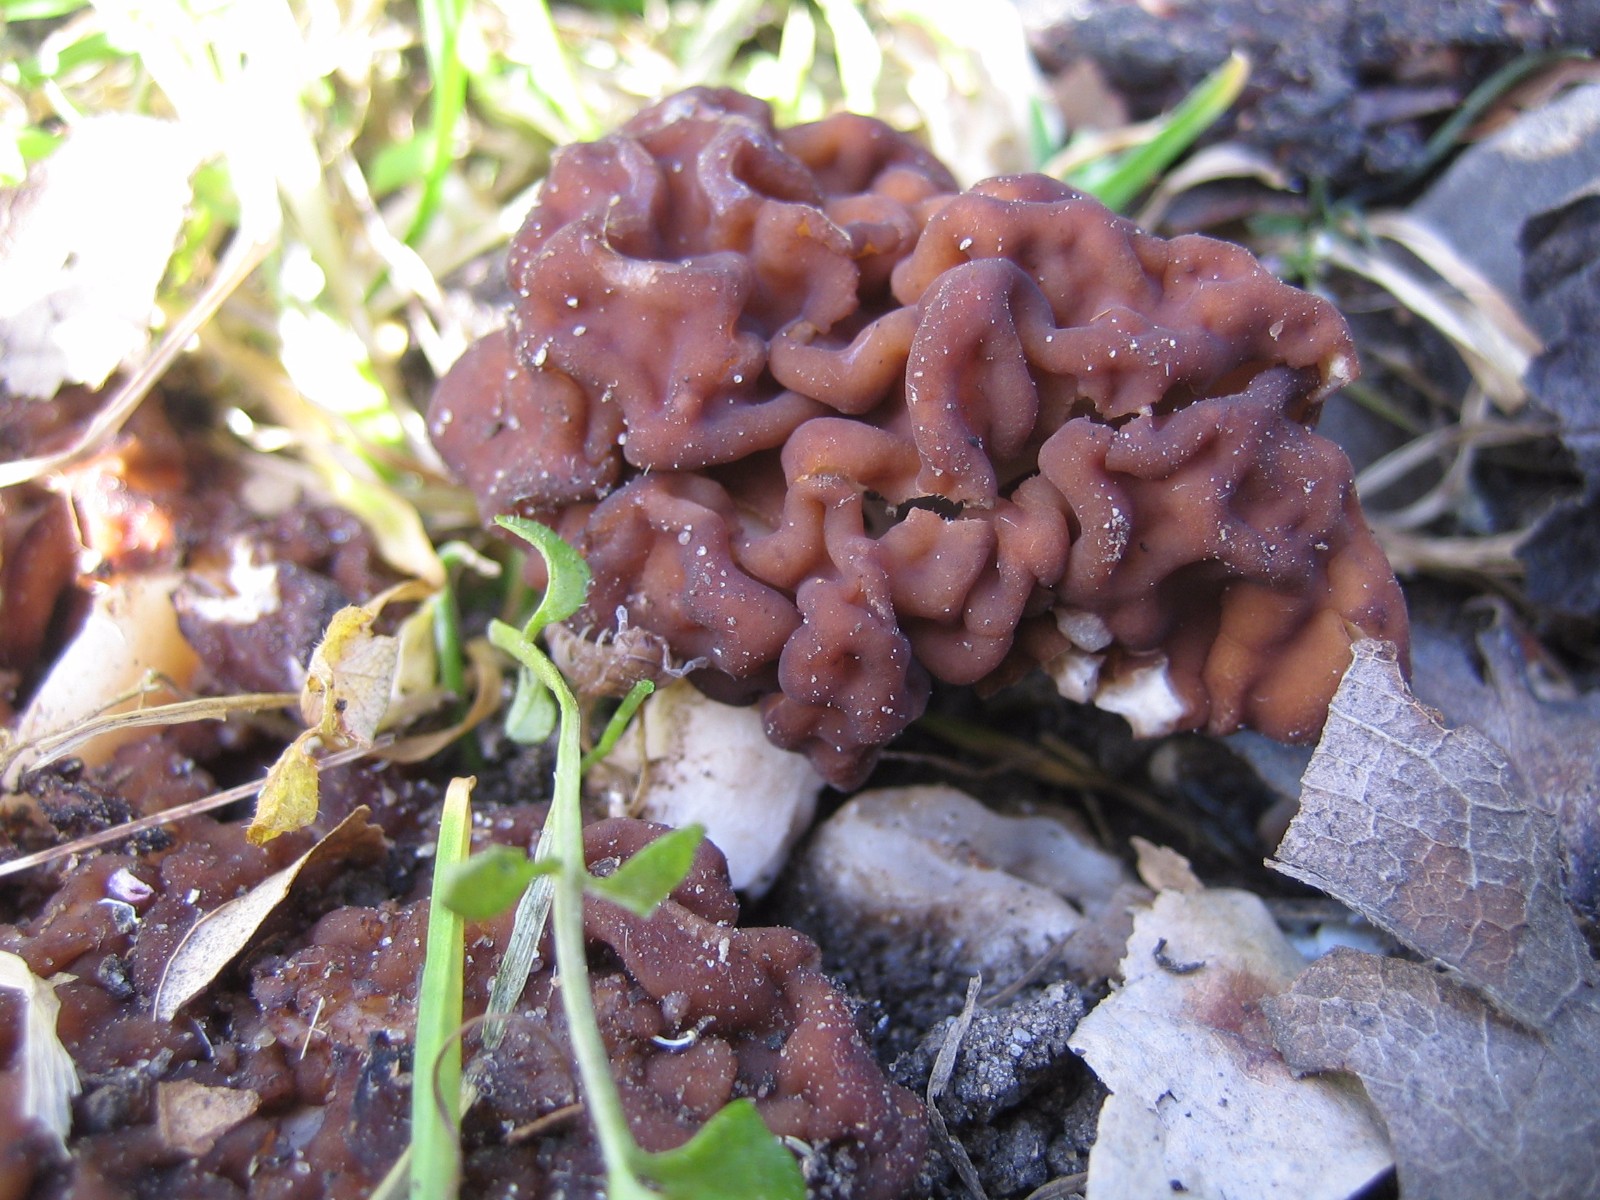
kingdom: Fungi
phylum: Ascomycota
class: Pezizomycetes
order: Pezizales
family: Discinaceae
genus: Gyromitra
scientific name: Gyromitra esculenta
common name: ægte stenmorkel
